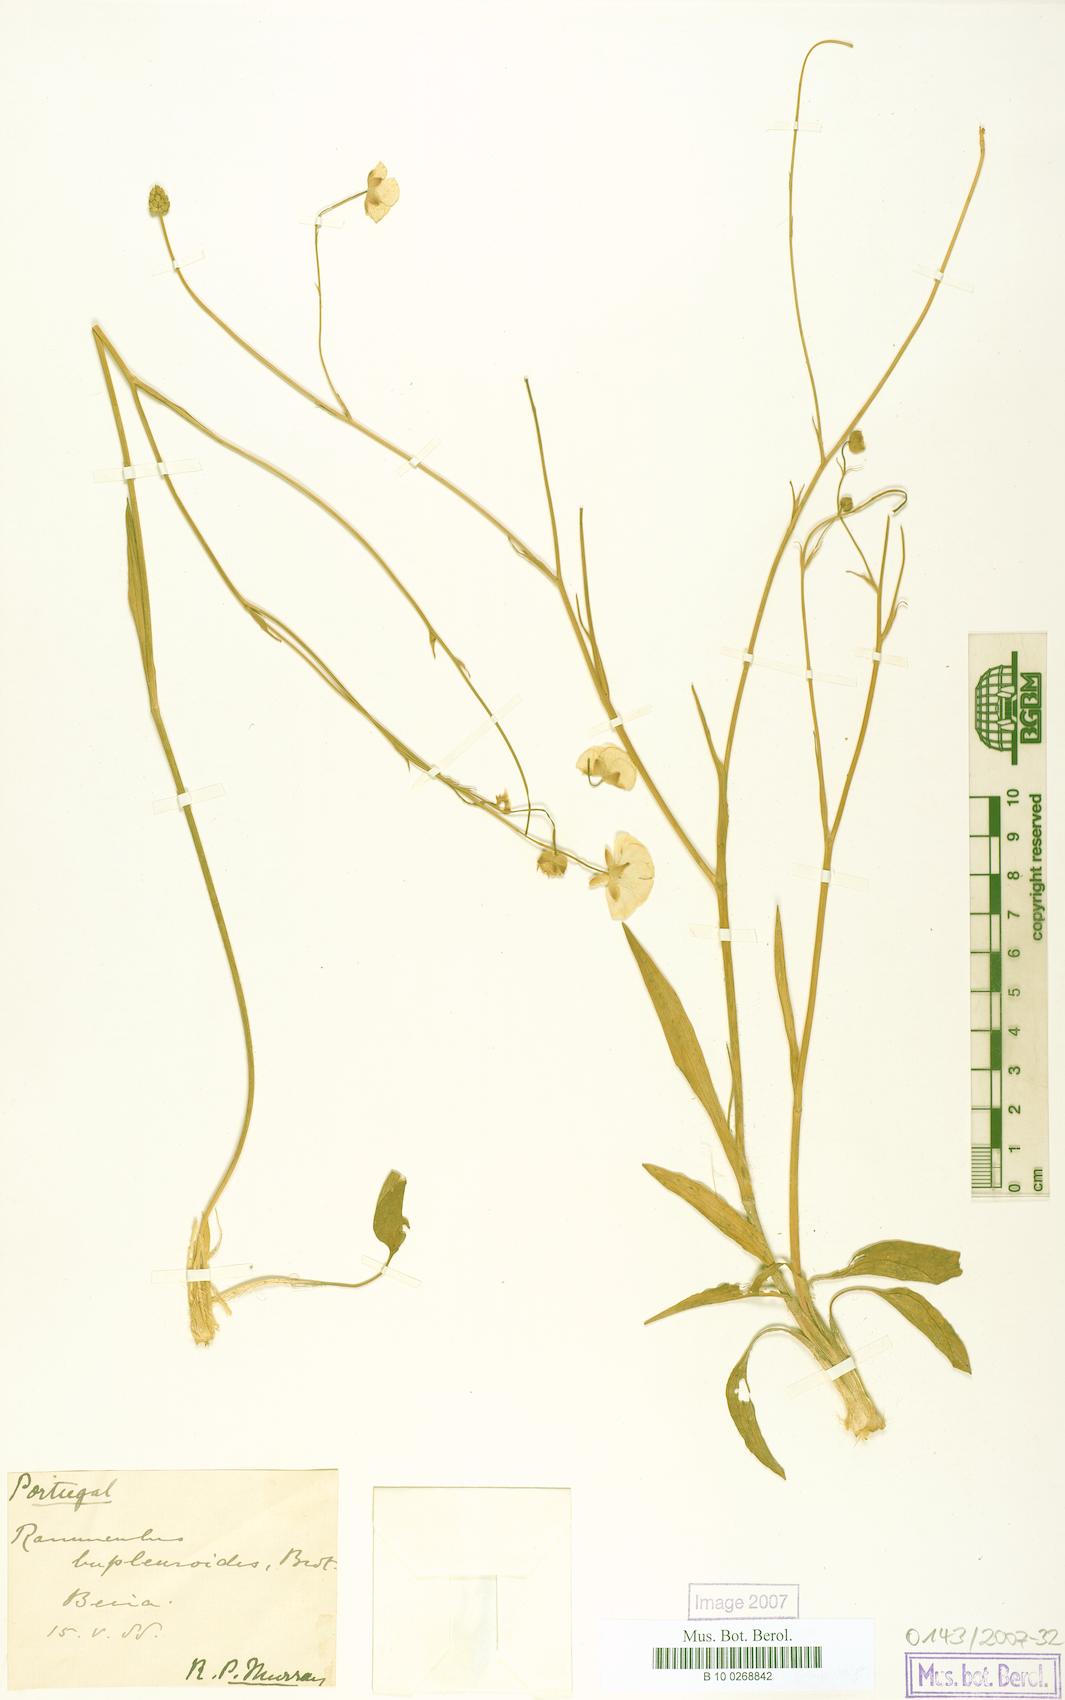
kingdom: Plantae
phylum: Tracheophyta
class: Magnoliopsida
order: Ranunculales
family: Ranunculaceae
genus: Ranunculus
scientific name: Ranunculus bupleuroides
